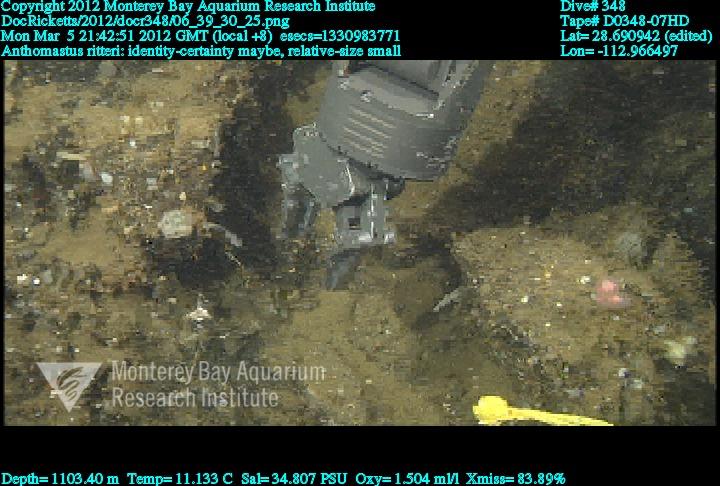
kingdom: Animalia
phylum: Cnidaria
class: Anthozoa
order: Scleralcyonacea
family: Coralliidae
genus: Heteropolypus
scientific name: Heteropolypus ritteri
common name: Ritter's soft coral
